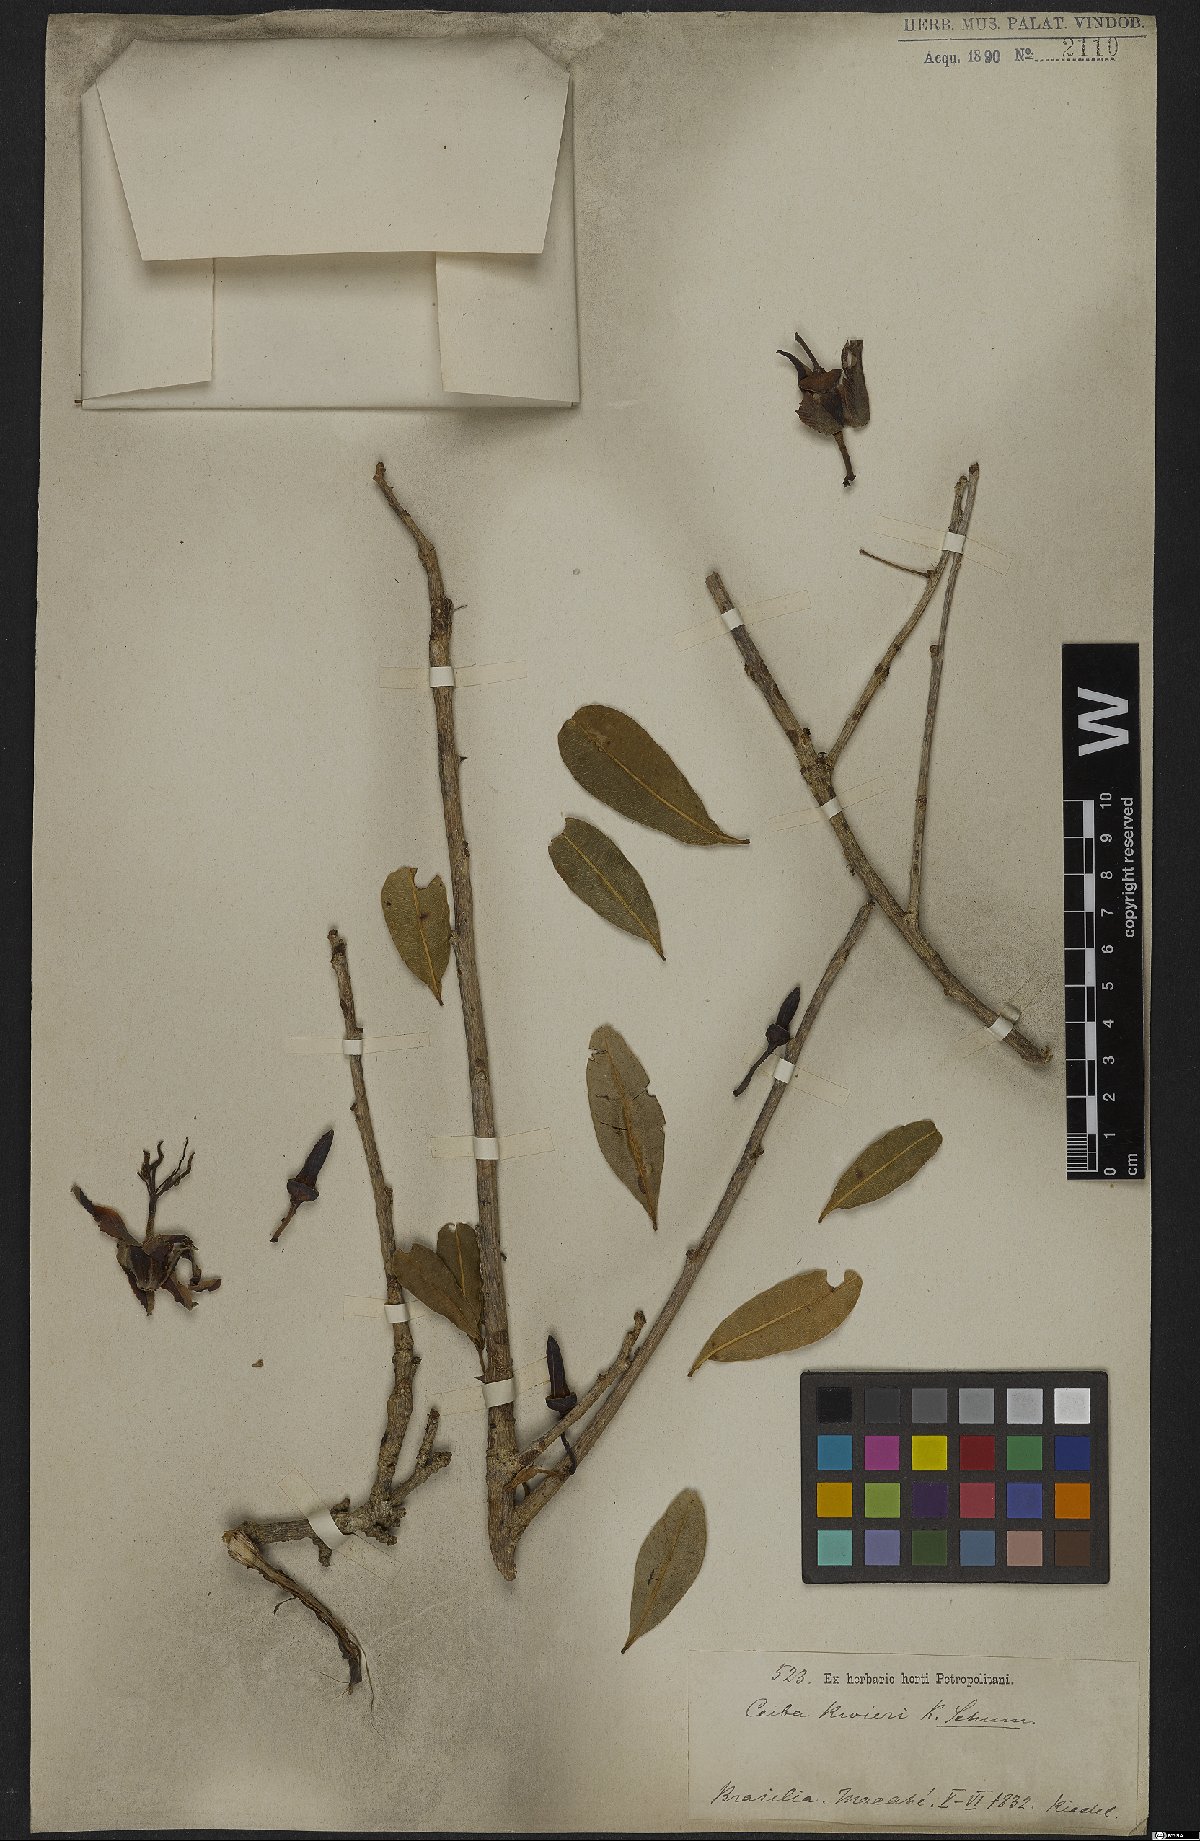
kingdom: Plantae
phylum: Tracheophyta
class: Magnoliopsida
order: Malvales
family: Malvaceae
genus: Spirotheca
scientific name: Spirotheca rivieri
